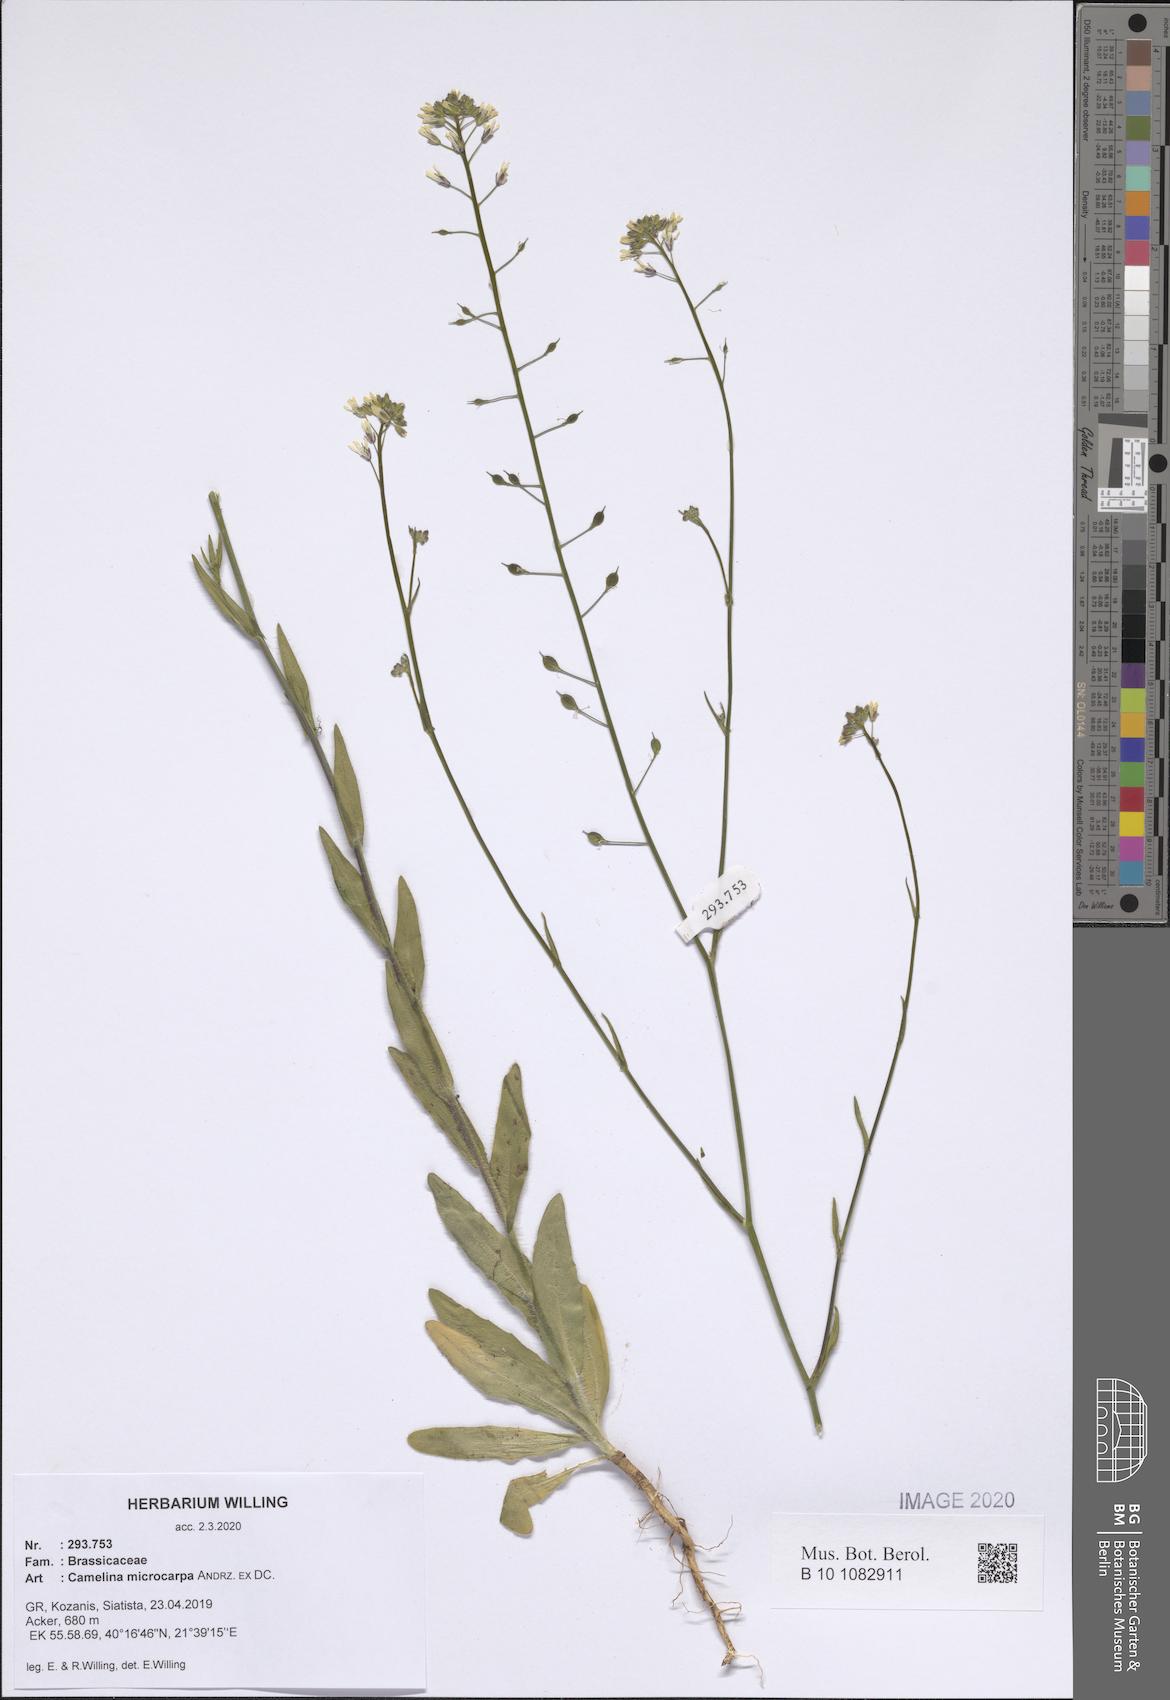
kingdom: Plantae
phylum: Tracheophyta
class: Magnoliopsida
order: Brassicales
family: Brassicaceae
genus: Camelina
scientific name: Camelina microcarpa
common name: Lesser gold-of-pleasure
